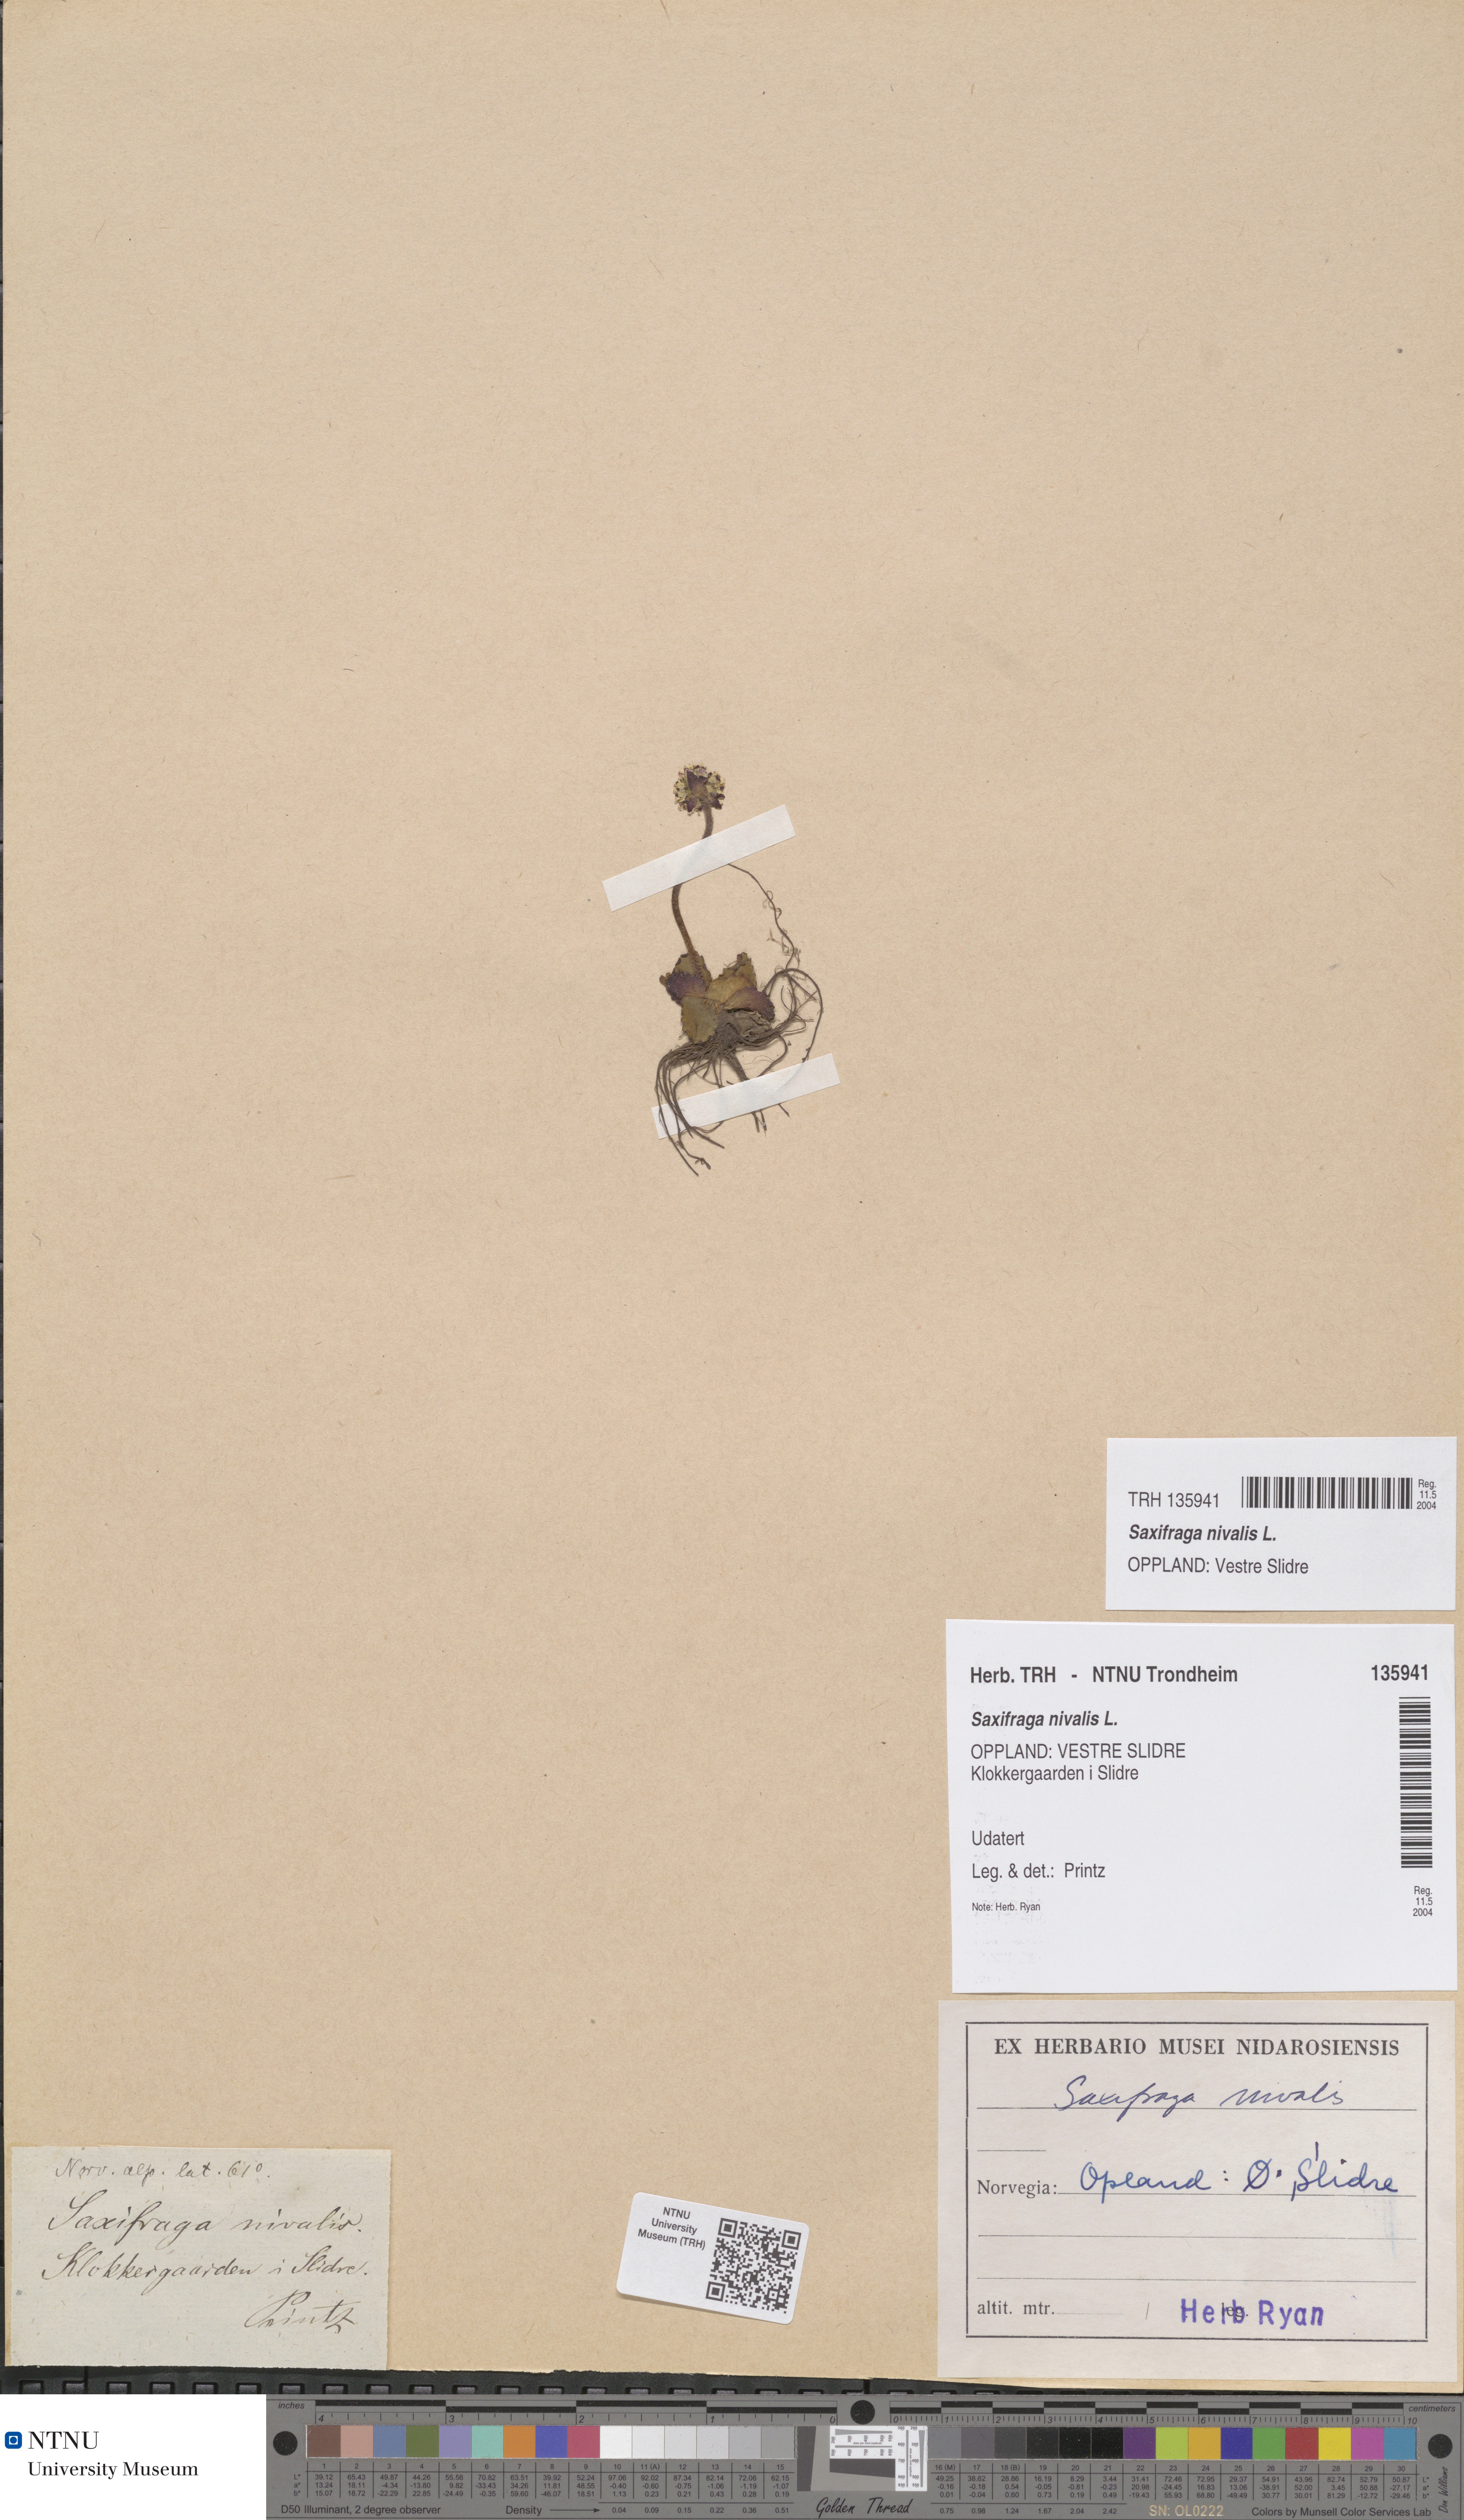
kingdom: Plantae
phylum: Tracheophyta
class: Magnoliopsida
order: Saxifragales
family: Saxifragaceae
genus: Micranthes
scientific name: Micranthes nivalis
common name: Alpine saxifrage
